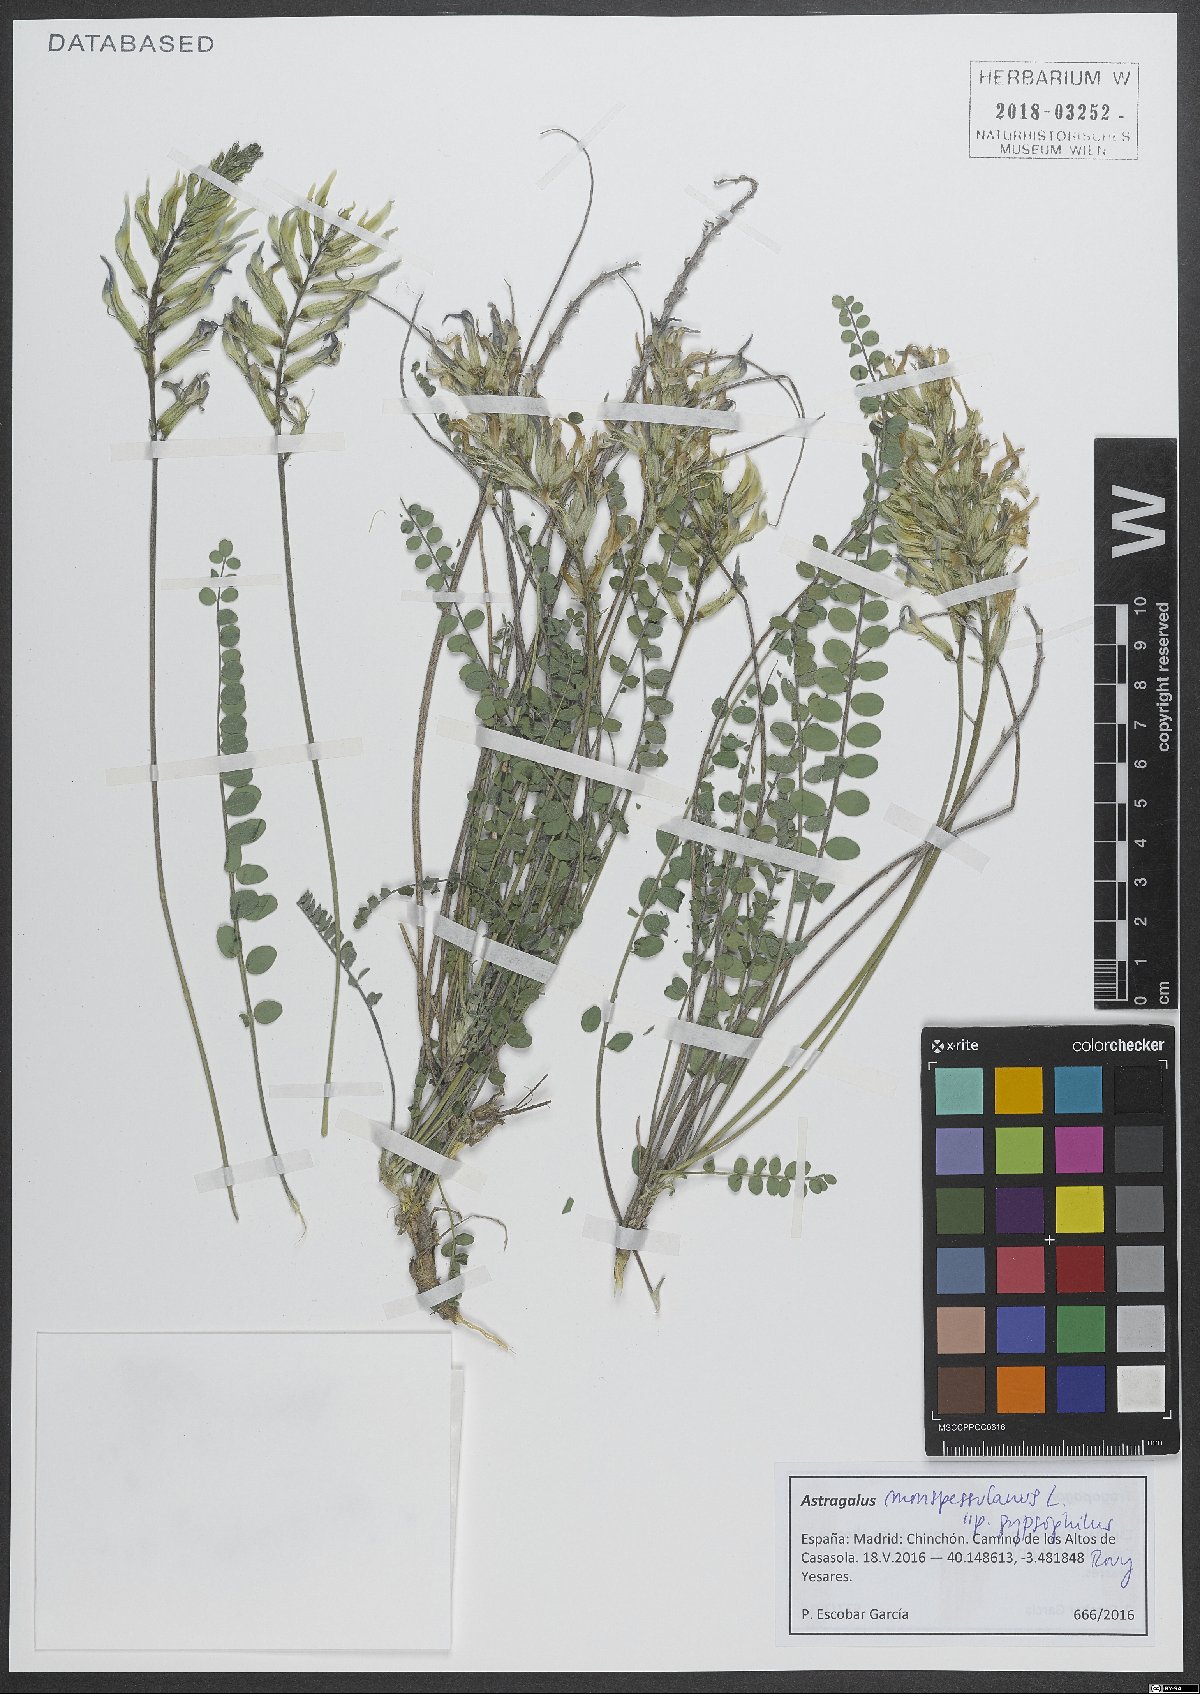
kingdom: Plantae
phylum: Tracheophyta
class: Magnoliopsida
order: Fabales
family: Fabaceae
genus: Astragalus
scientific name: Astragalus monspessulanus
